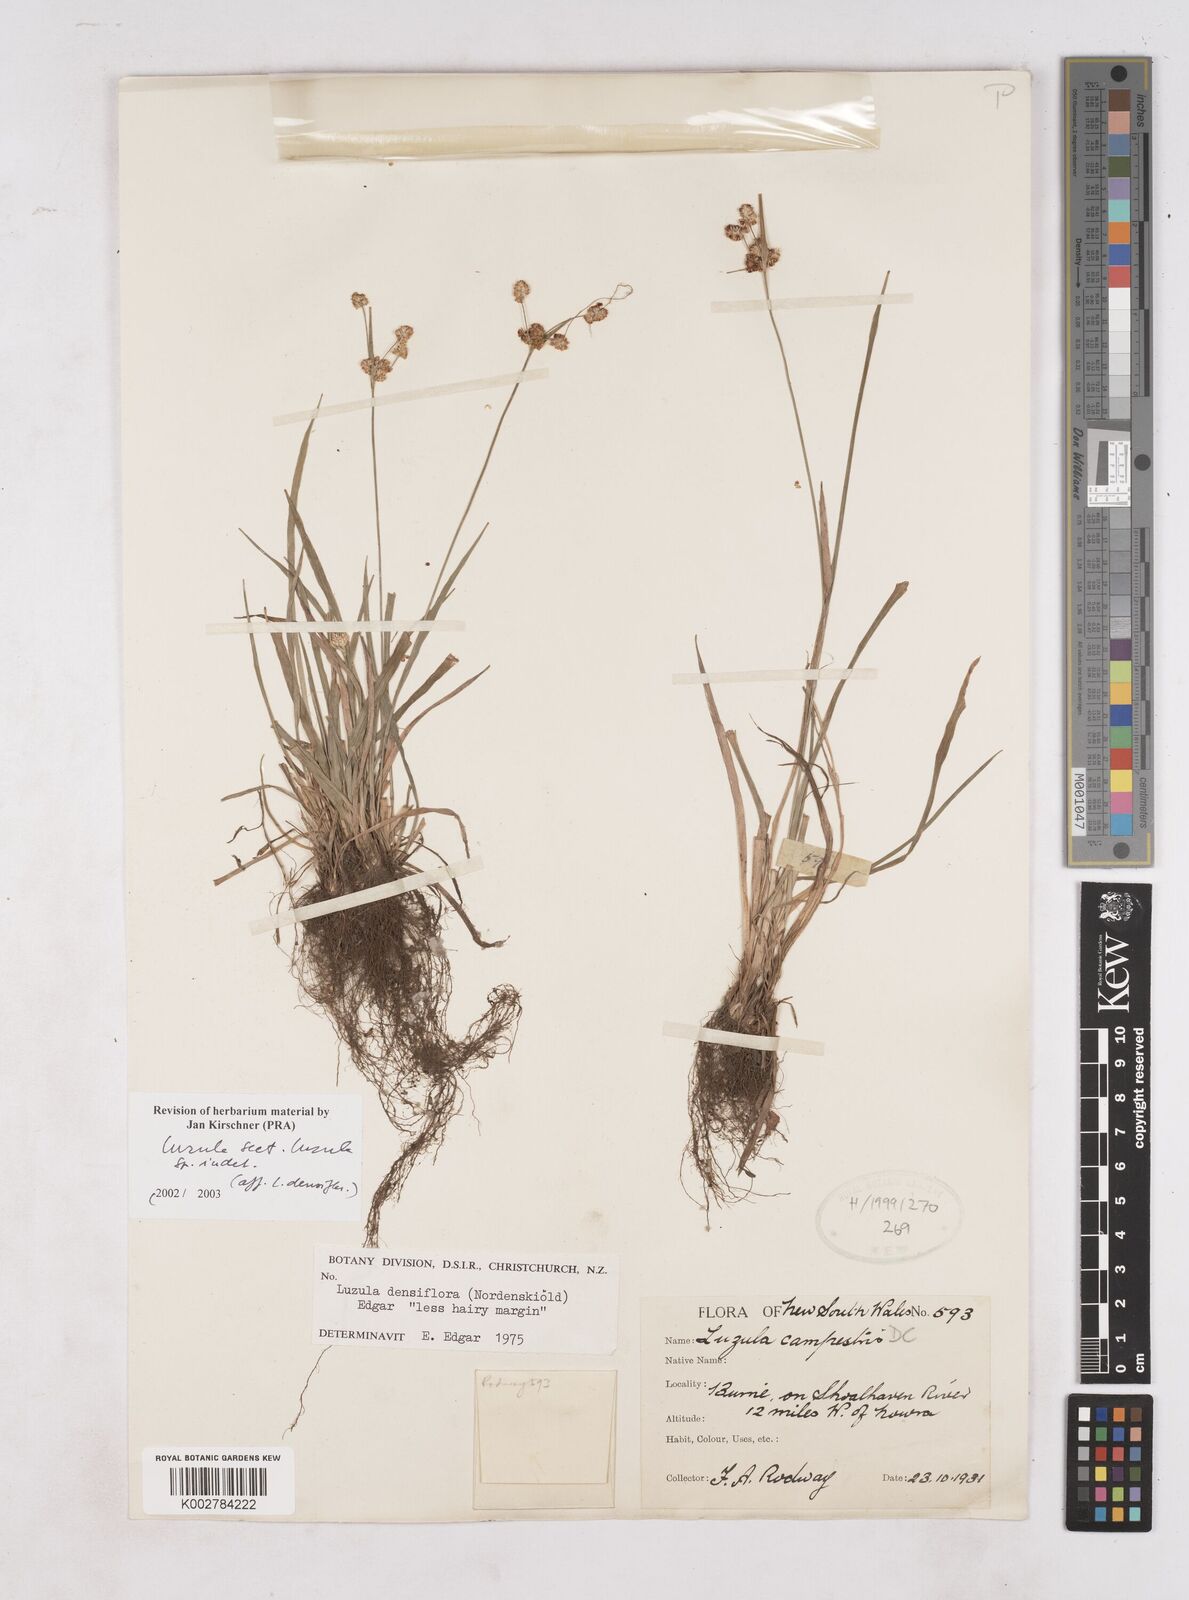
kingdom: Plantae
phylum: Tracheophyta
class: Liliopsida
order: Poales
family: Juncaceae
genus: Luzula
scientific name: Luzula densiflora
